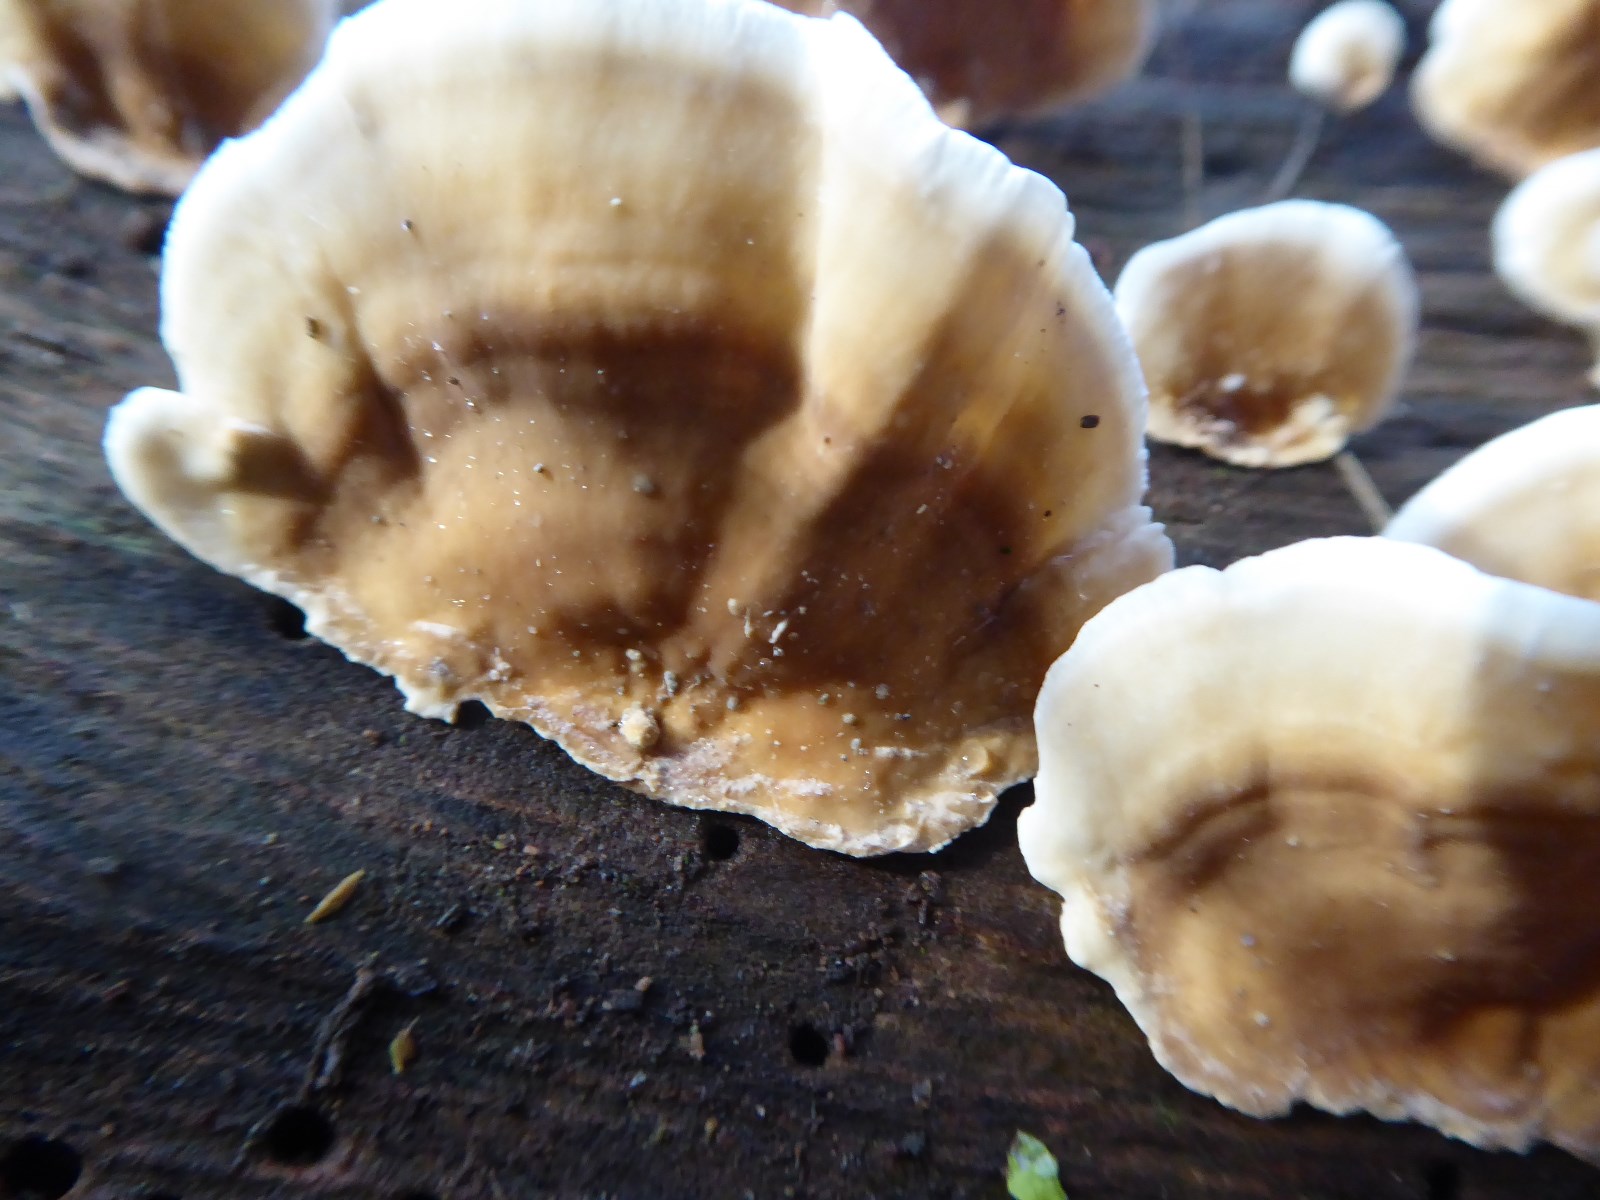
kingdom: Fungi
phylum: Basidiomycota
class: Agaricomycetes
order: Russulales
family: Stereaceae
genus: Stereum
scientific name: Stereum subtomentosum
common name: smuk lædersvamp
